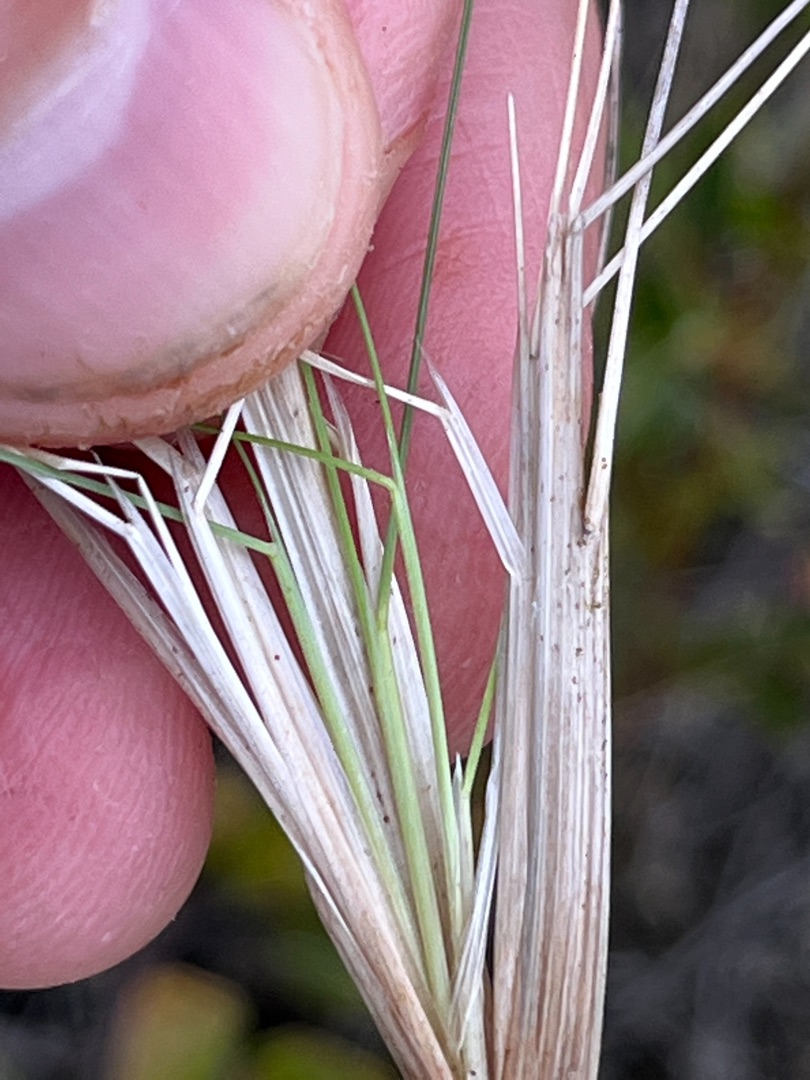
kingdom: Plantae
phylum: Tracheophyta
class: Liliopsida
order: Poales
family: Poaceae
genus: Deschampsia
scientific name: Deschampsia setacea
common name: Fin bunke
